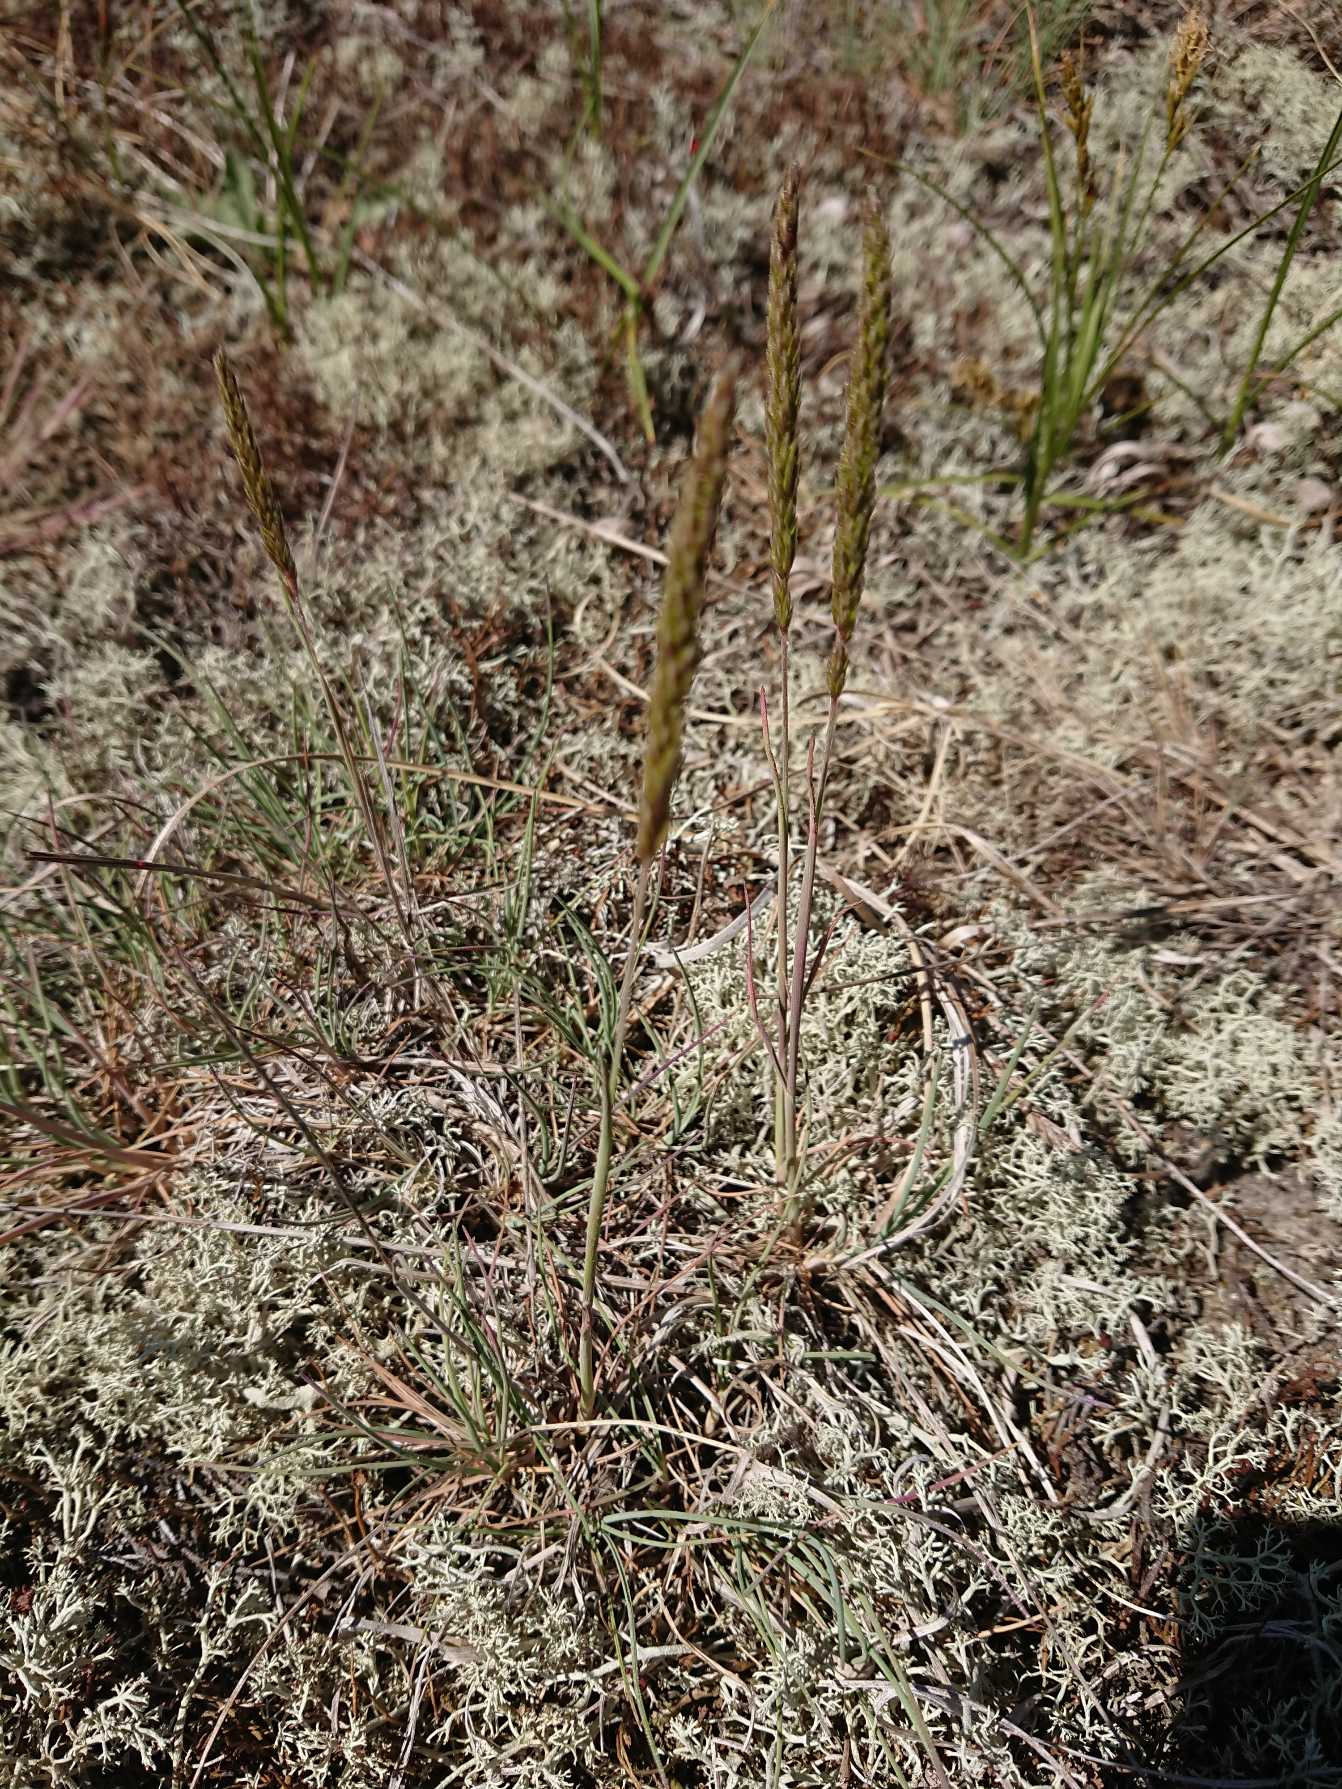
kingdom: Plantae
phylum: Tracheophyta
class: Liliopsida
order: Poales
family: Poaceae
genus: Koeleria
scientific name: Koeleria glauca
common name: Klit-kambunke
